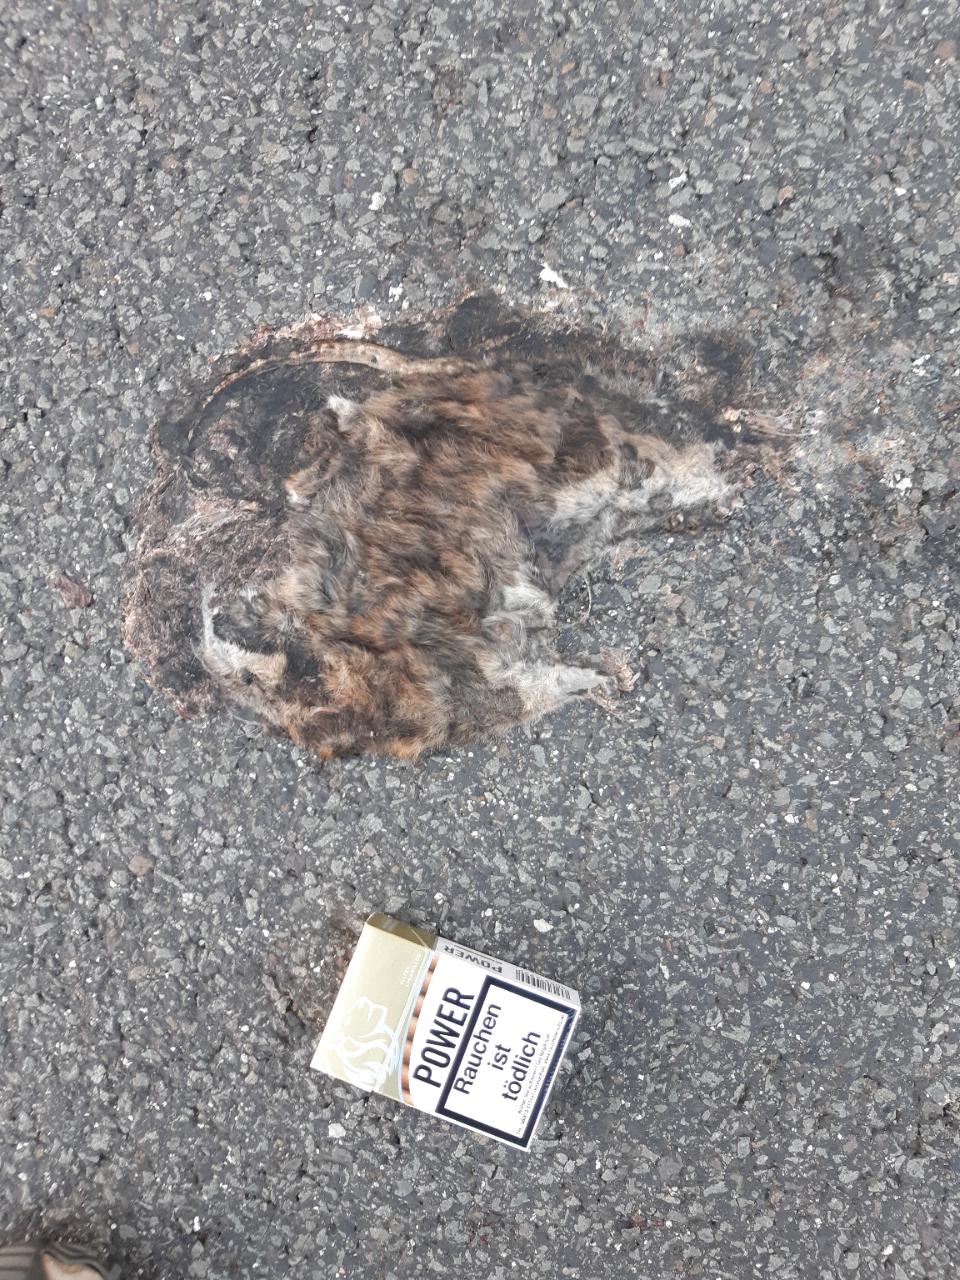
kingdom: Animalia
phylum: Chordata
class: Mammalia
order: Rodentia
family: Muridae
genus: Rattus
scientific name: Rattus norvegicus
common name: Brown rat
